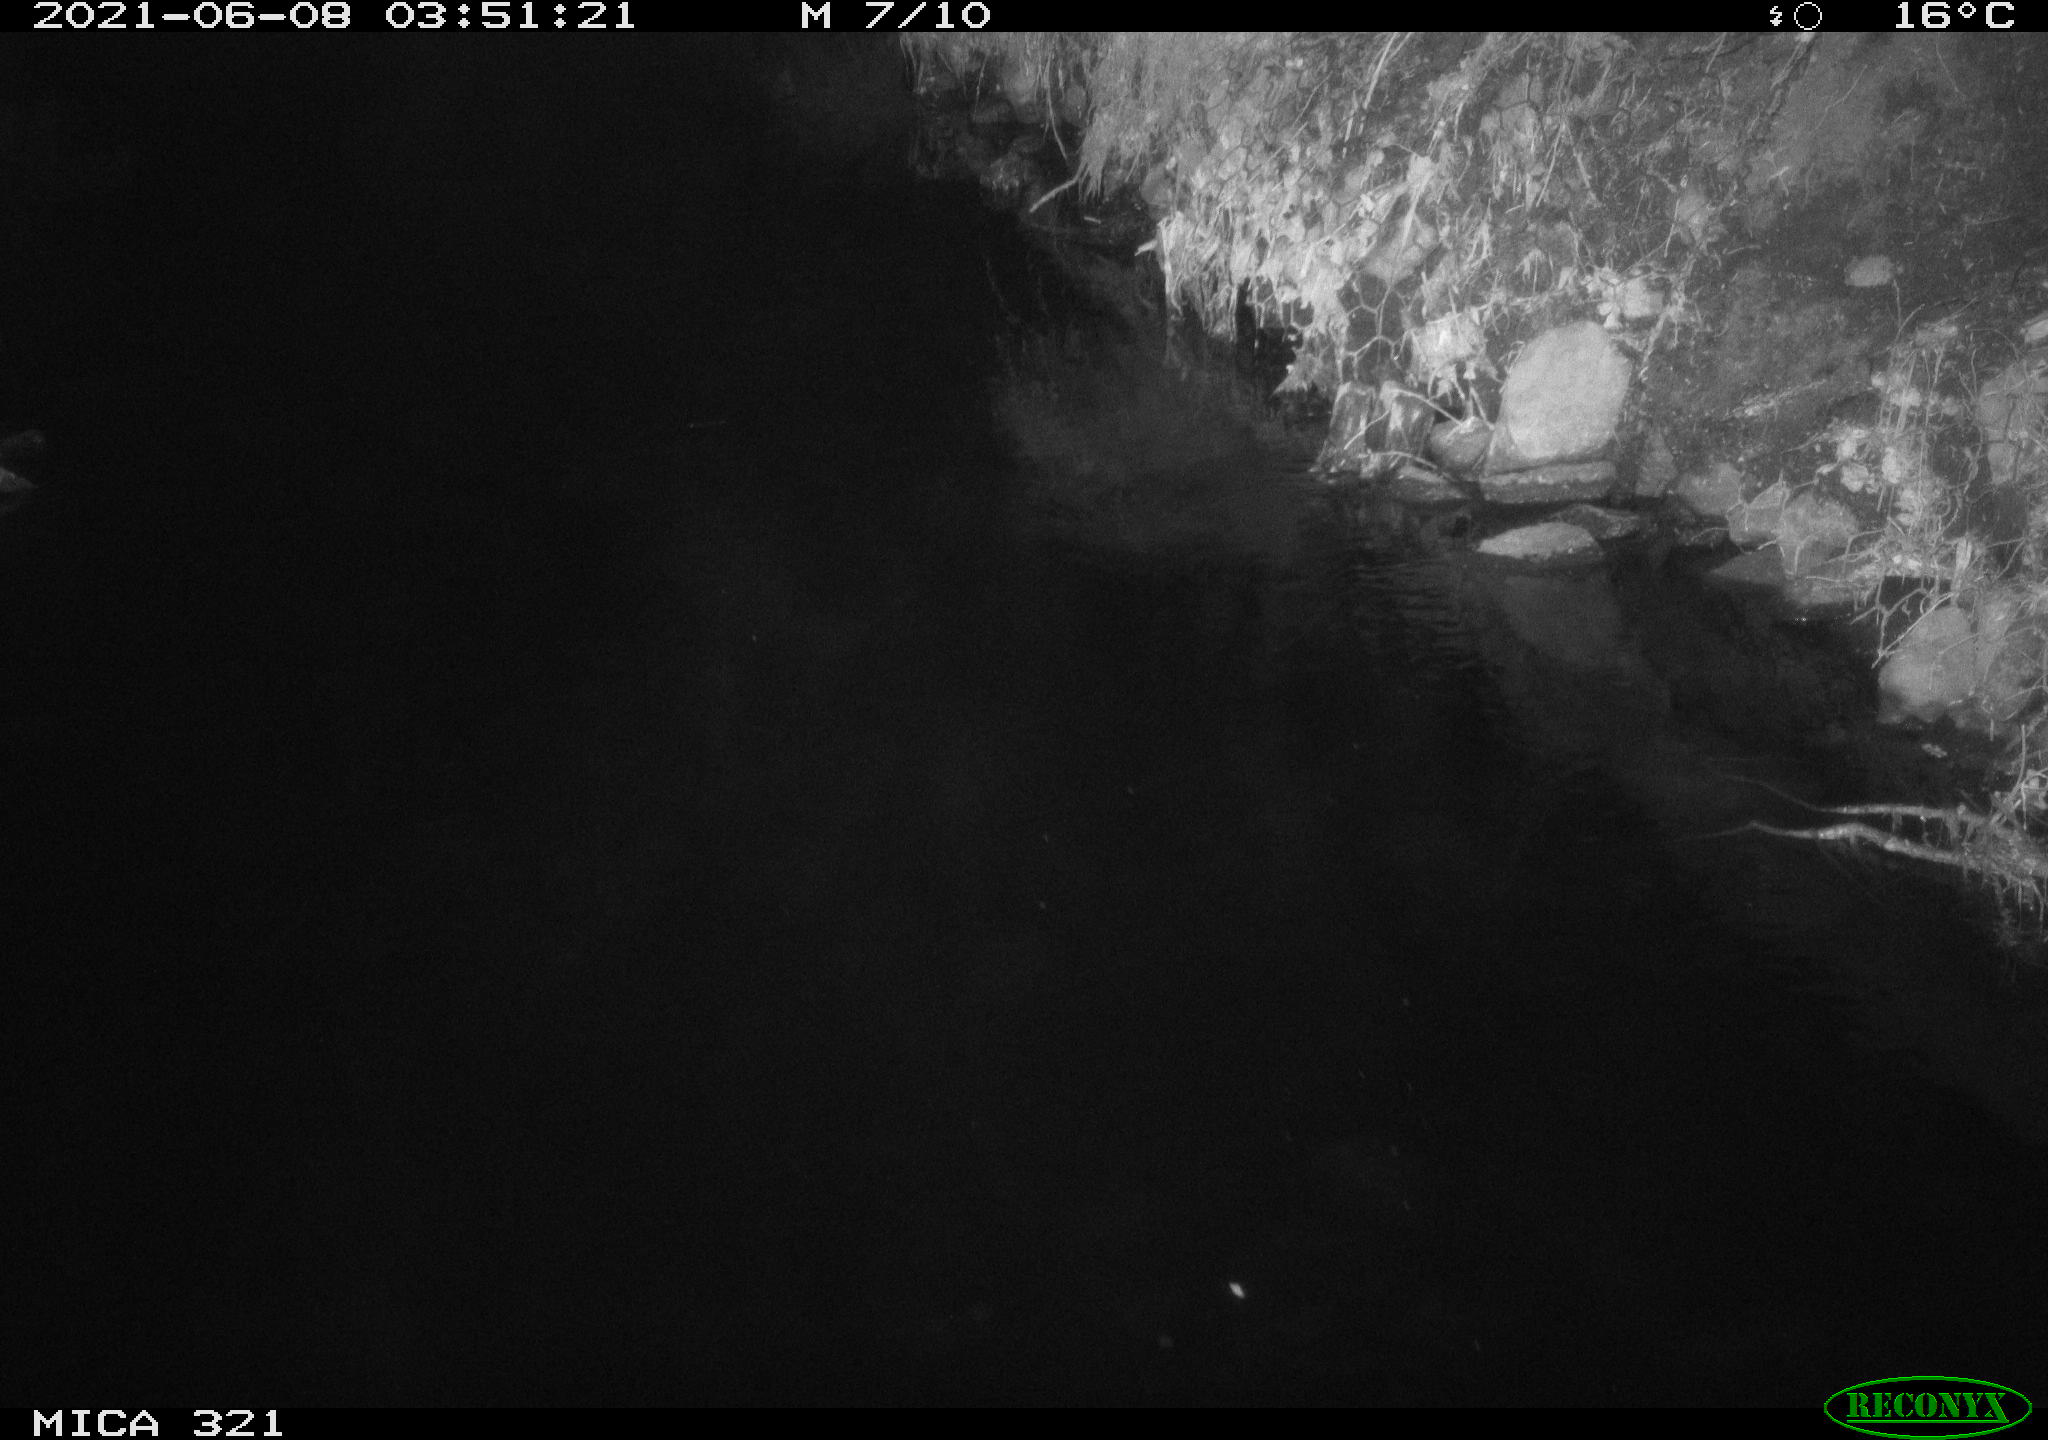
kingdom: Animalia
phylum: Chordata
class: Aves
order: Anseriformes
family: Anatidae
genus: Anas
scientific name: Anas platyrhynchos
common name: Mallard
